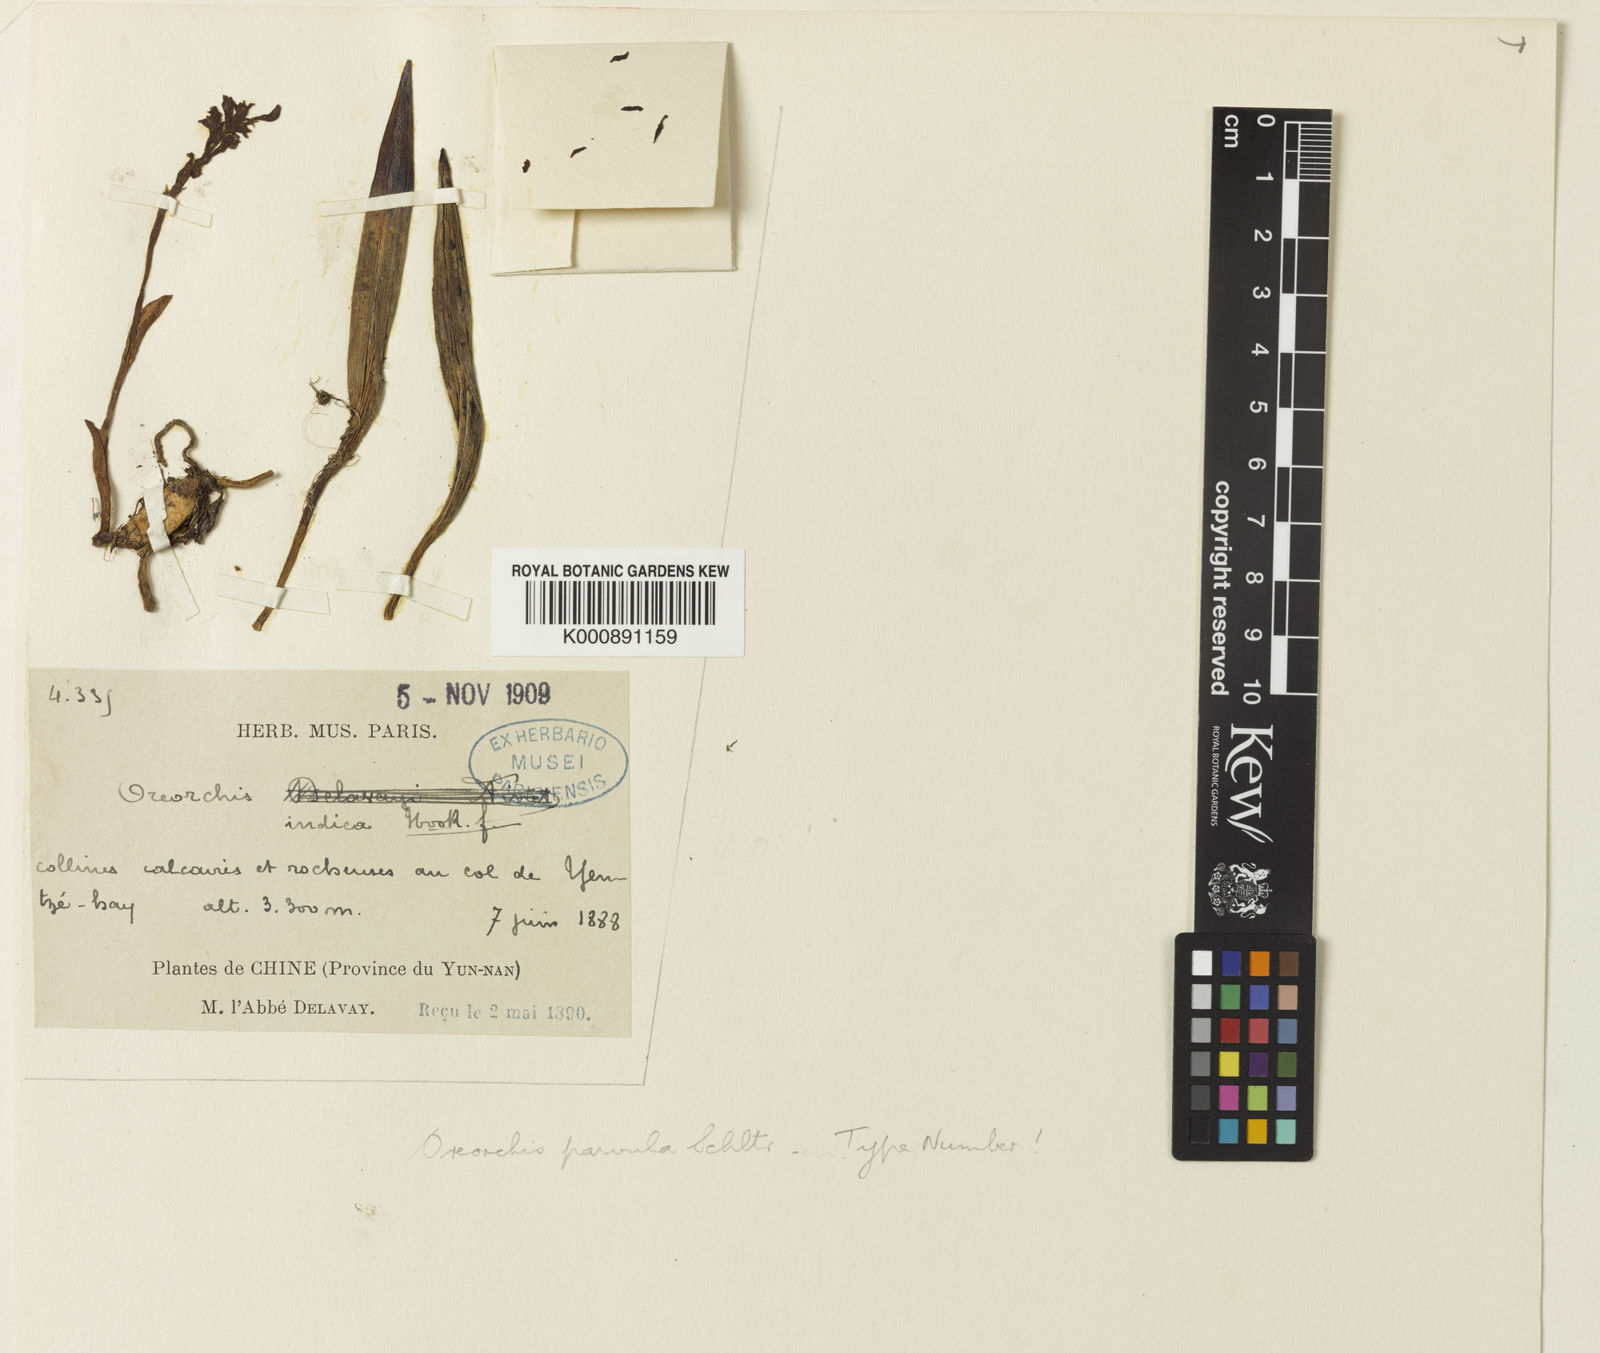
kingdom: Plantae
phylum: Tracheophyta
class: Liliopsida
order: Asparagales
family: Orchidaceae
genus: Oreorchis
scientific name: Oreorchis indica
